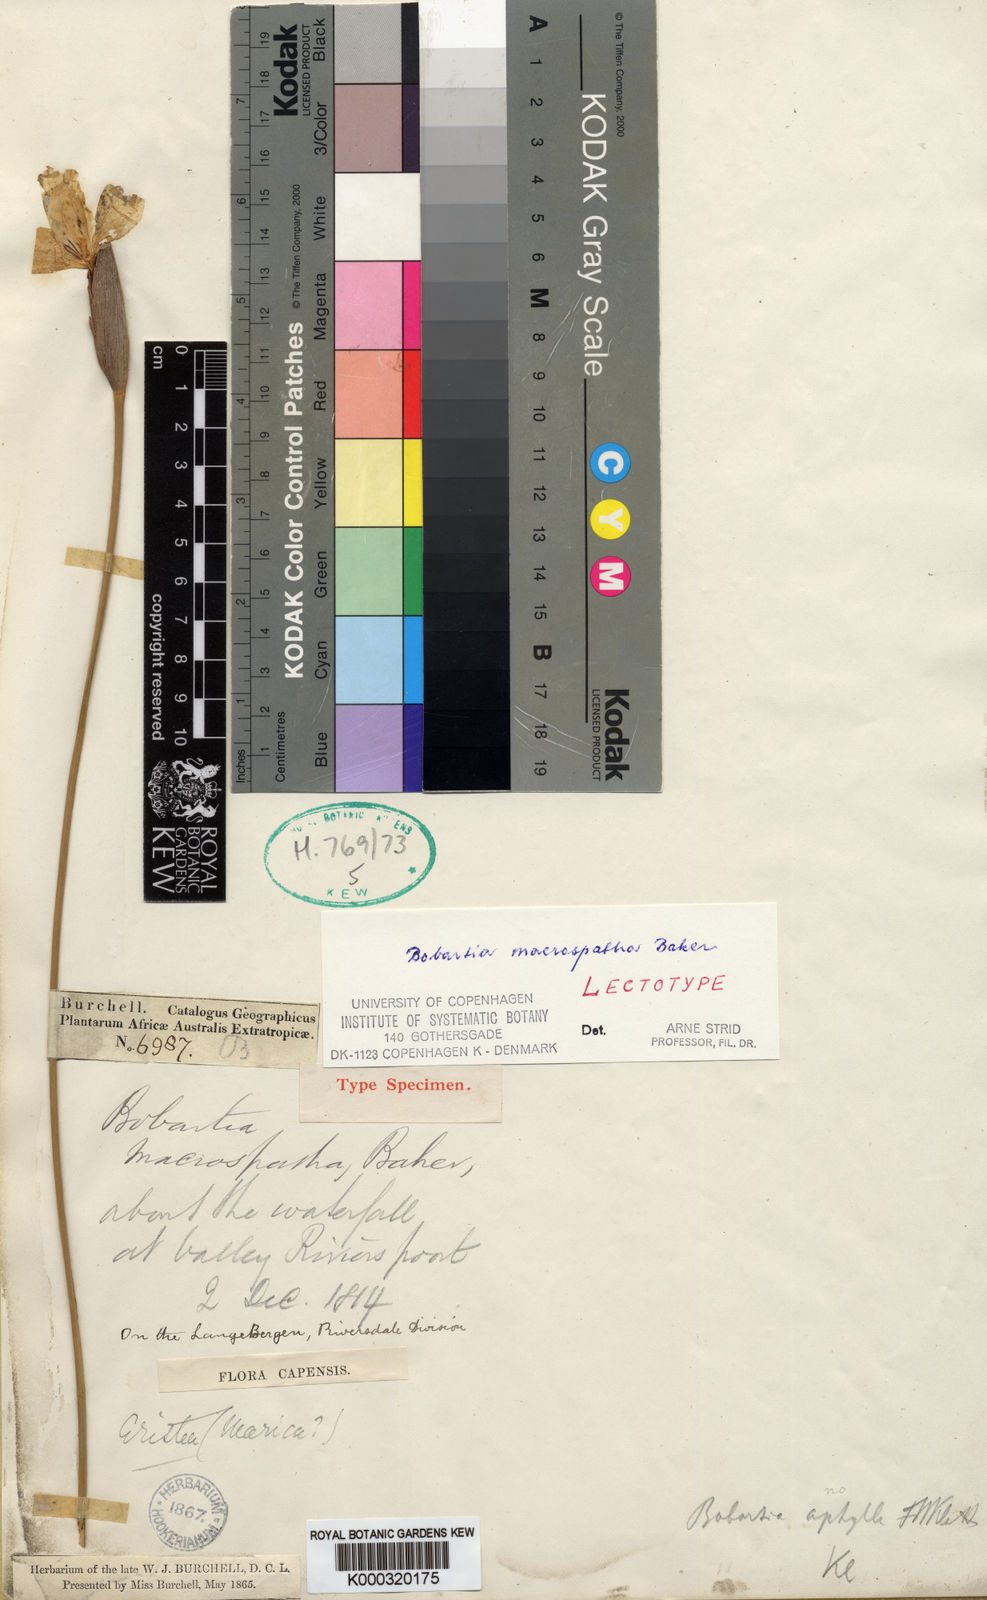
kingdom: Plantae
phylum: Tracheophyta
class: Liliopsida
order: Asparagales
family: Iridaceae
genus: Bobartia
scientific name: Bobartia macrospatha
